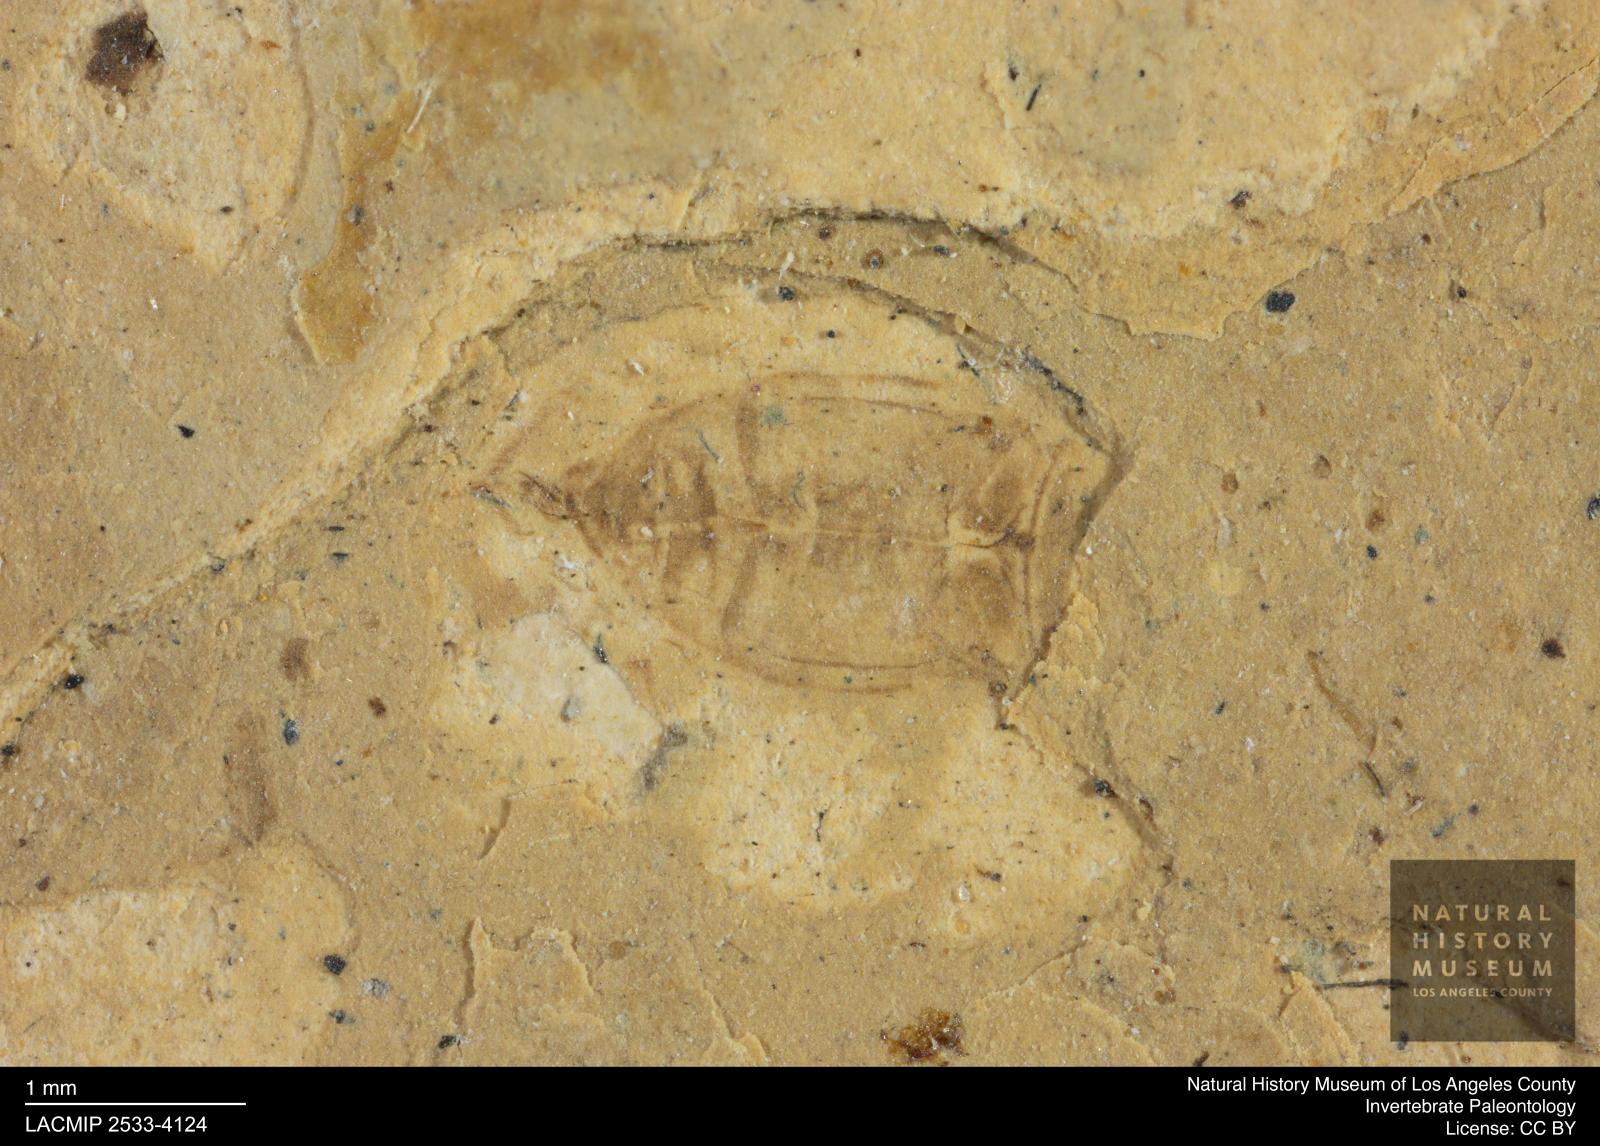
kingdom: Animalia
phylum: Arthropoda
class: Insecta
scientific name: Insecta
